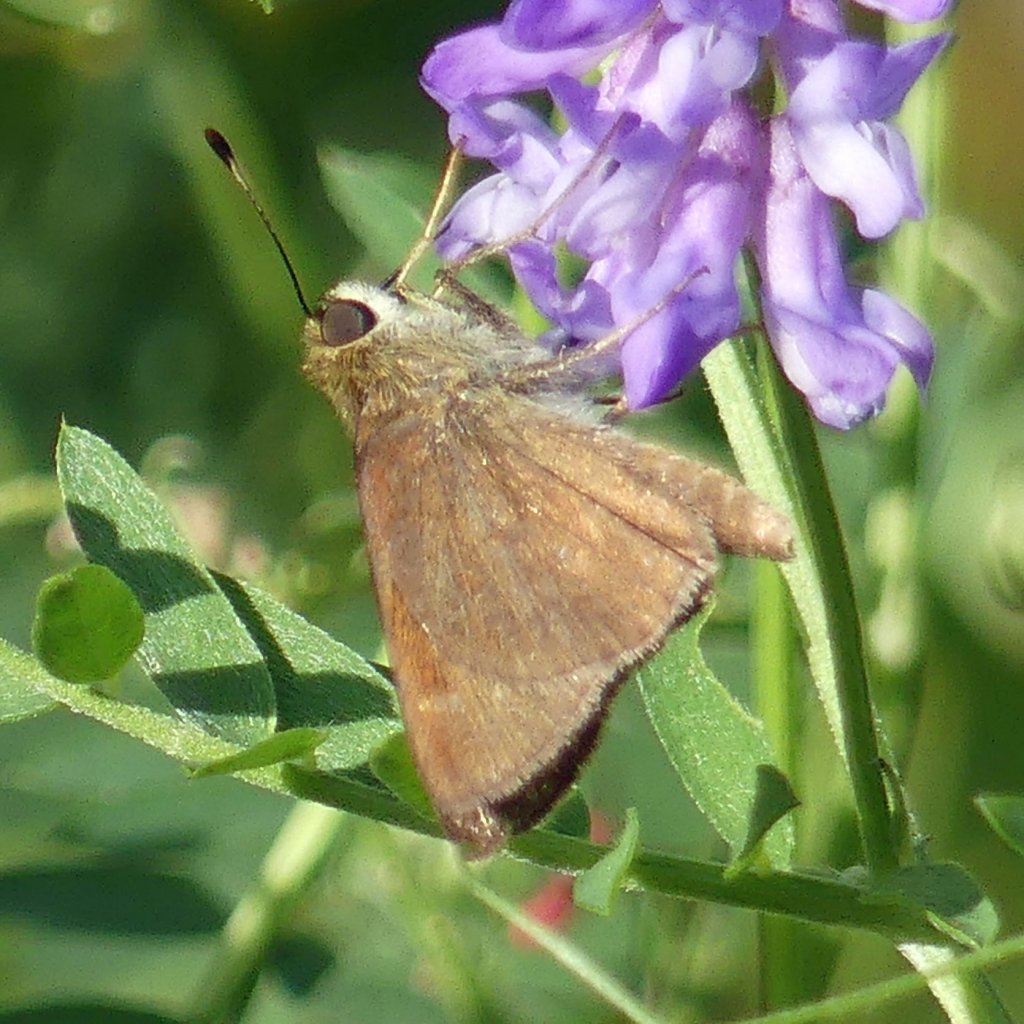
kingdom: Animalia
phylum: Arthropoda
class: Insecta
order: Lepidoptera
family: Hesperiidae
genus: Euphyes
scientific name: Euphyes vestris
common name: Dun Skipper
